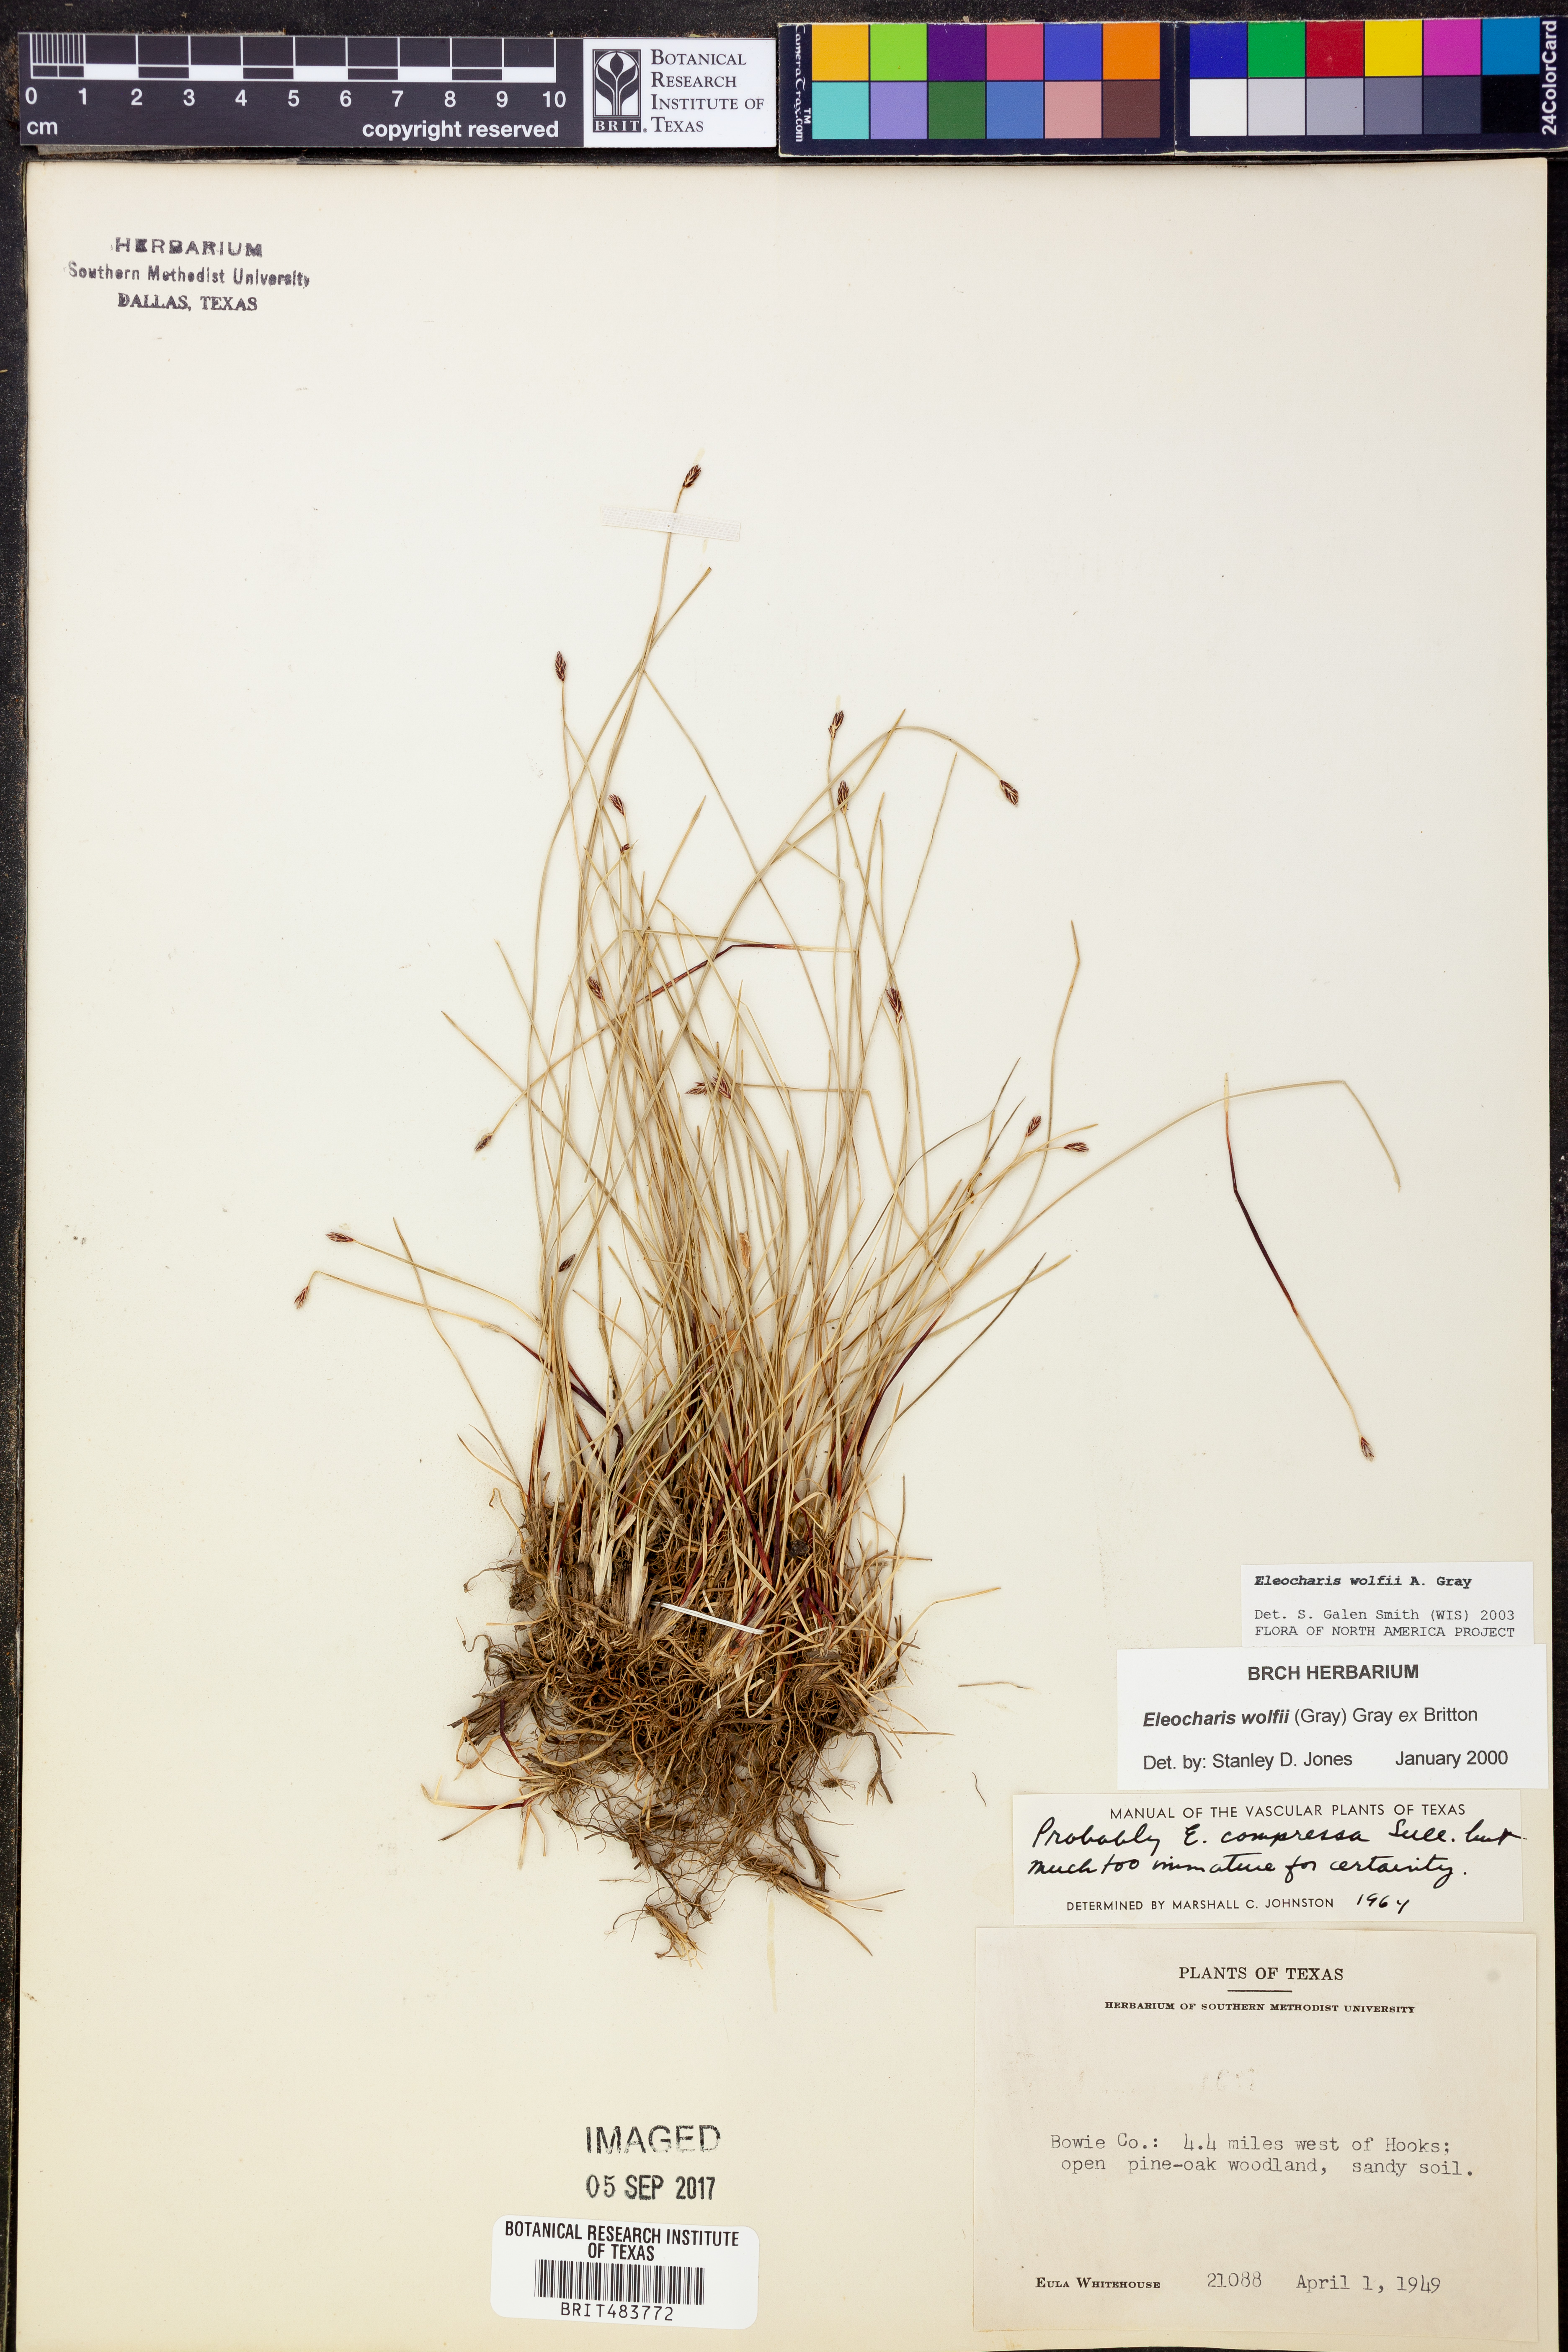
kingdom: Plantae
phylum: Tracheophyta
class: Liliopsida
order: Poales
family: Cyperaceae
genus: Eleocharis
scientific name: Eleocharis wolfii
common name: Wolf's spikerush
